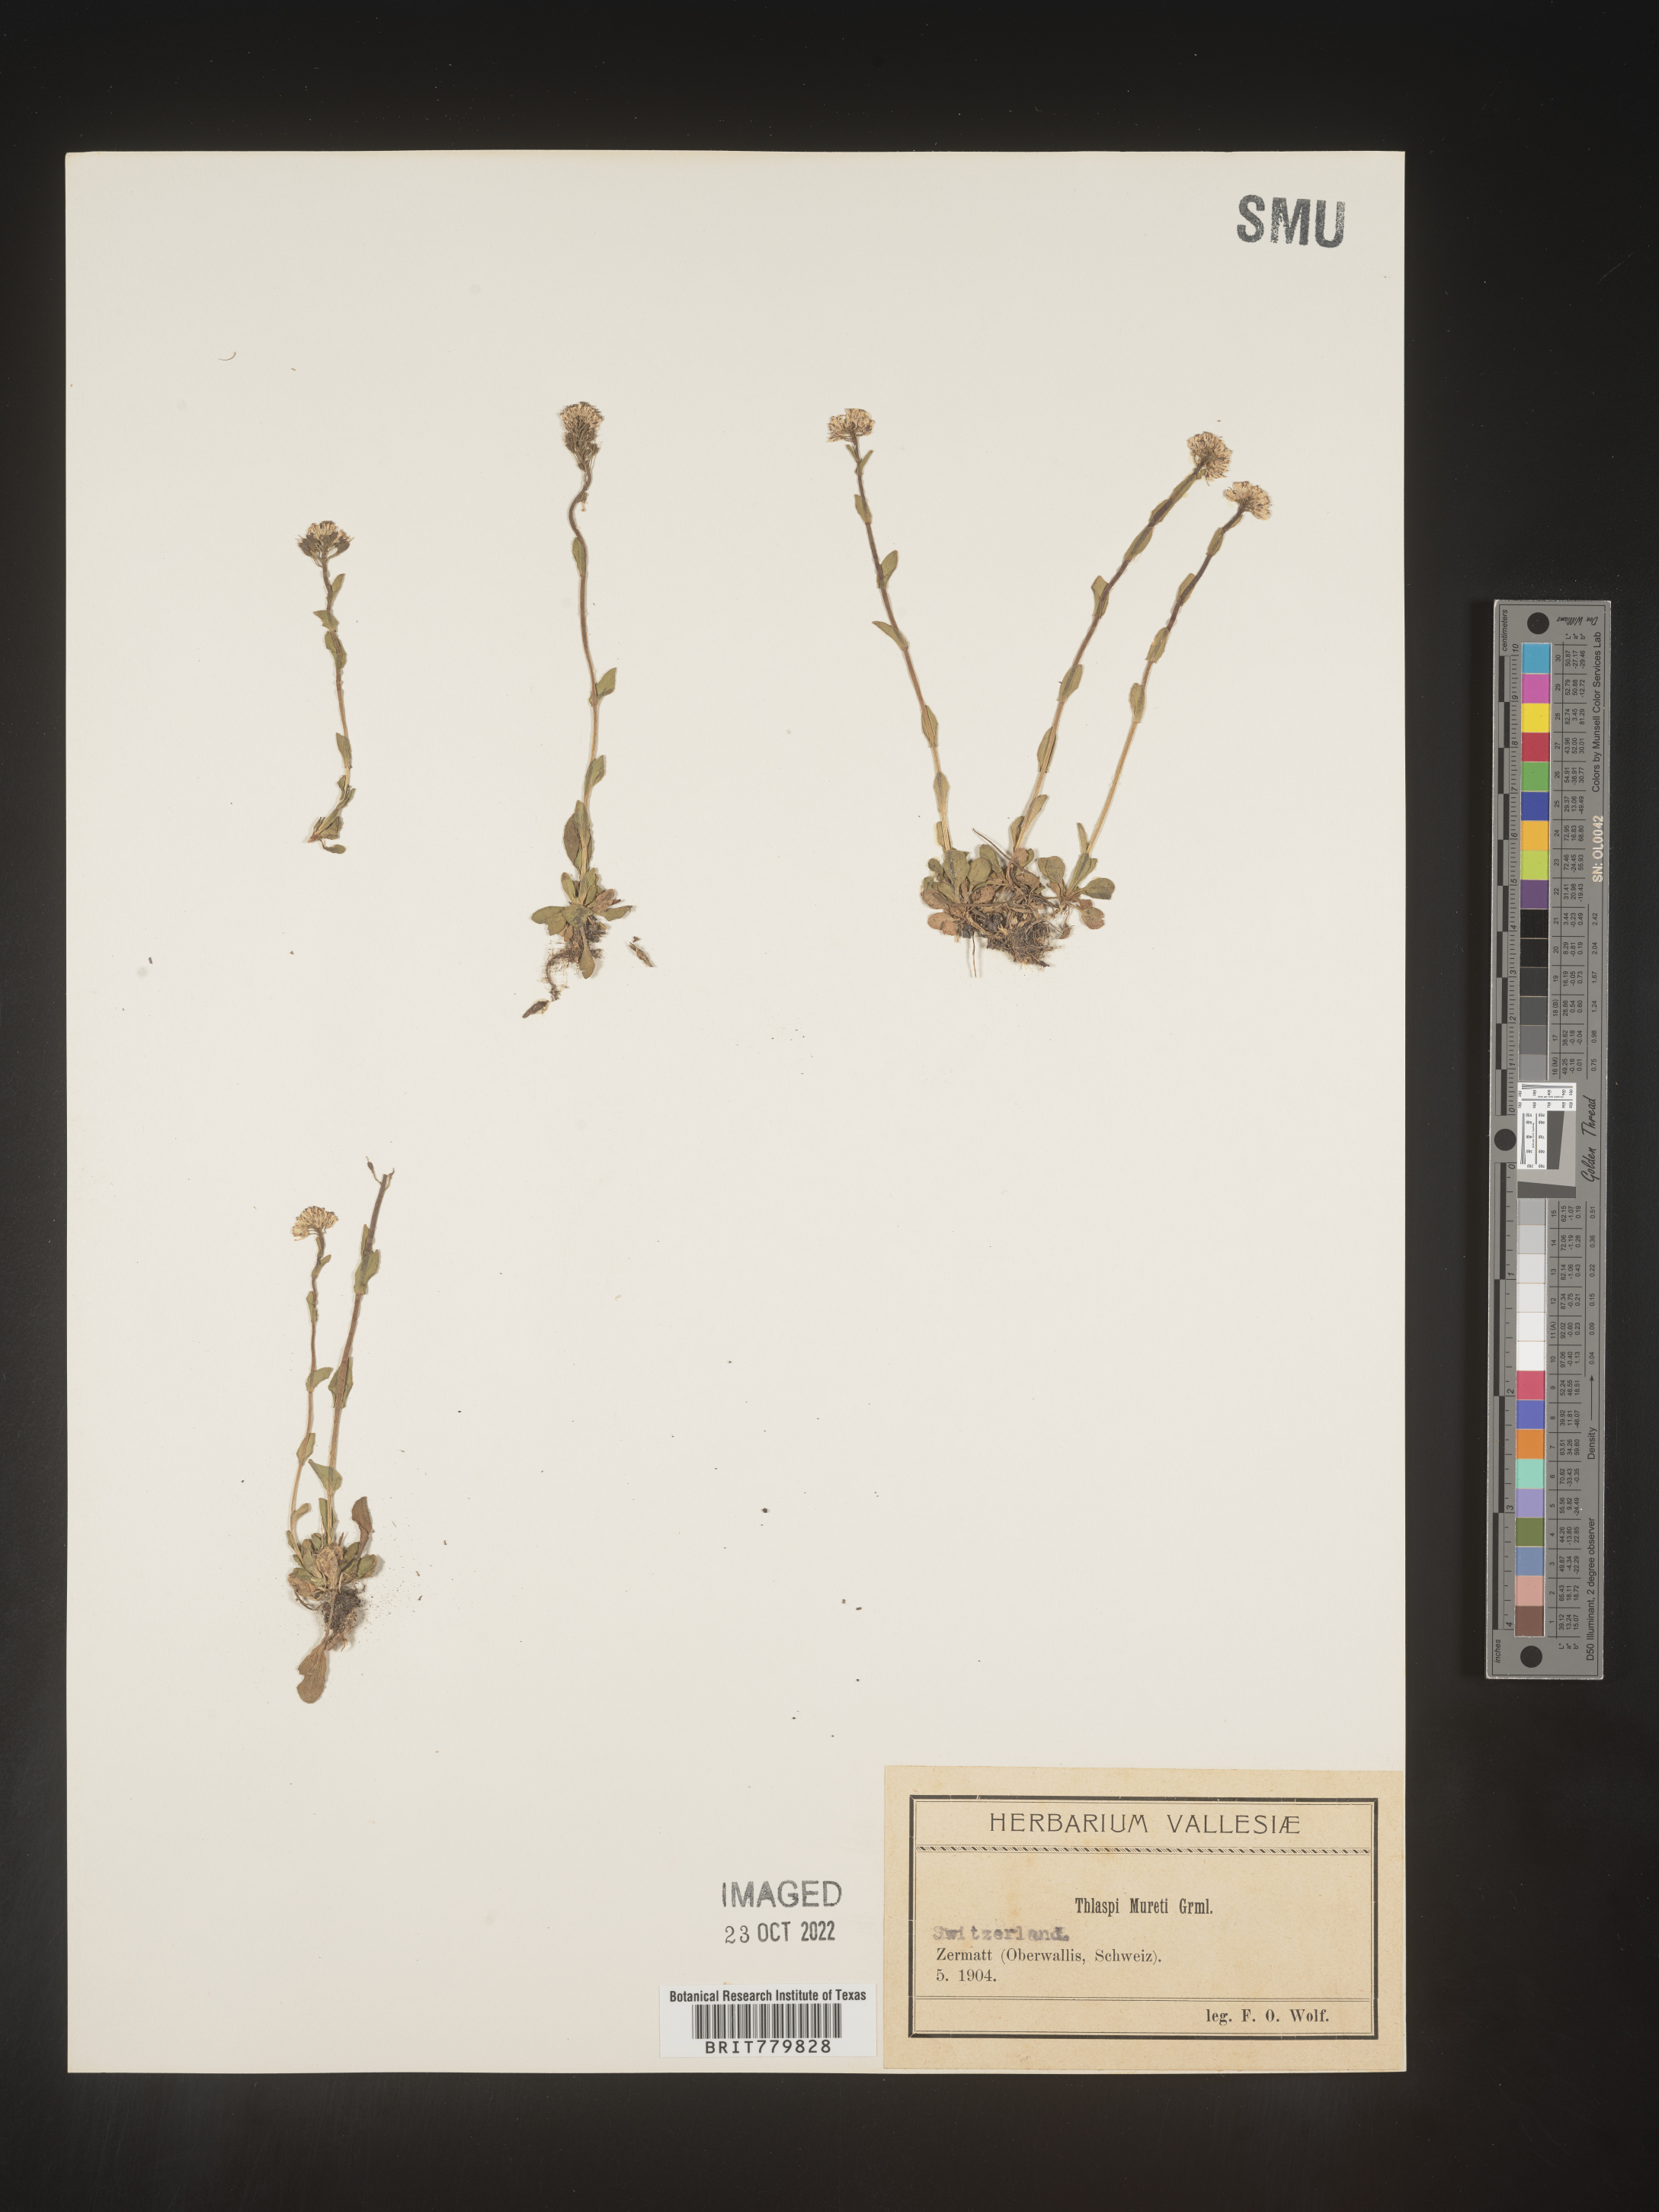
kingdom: Plantae
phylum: Tracheophyta
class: Magnoliopsida
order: Brassicales
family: Brassicaceae
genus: Thlaspi
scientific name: Thlaspi
